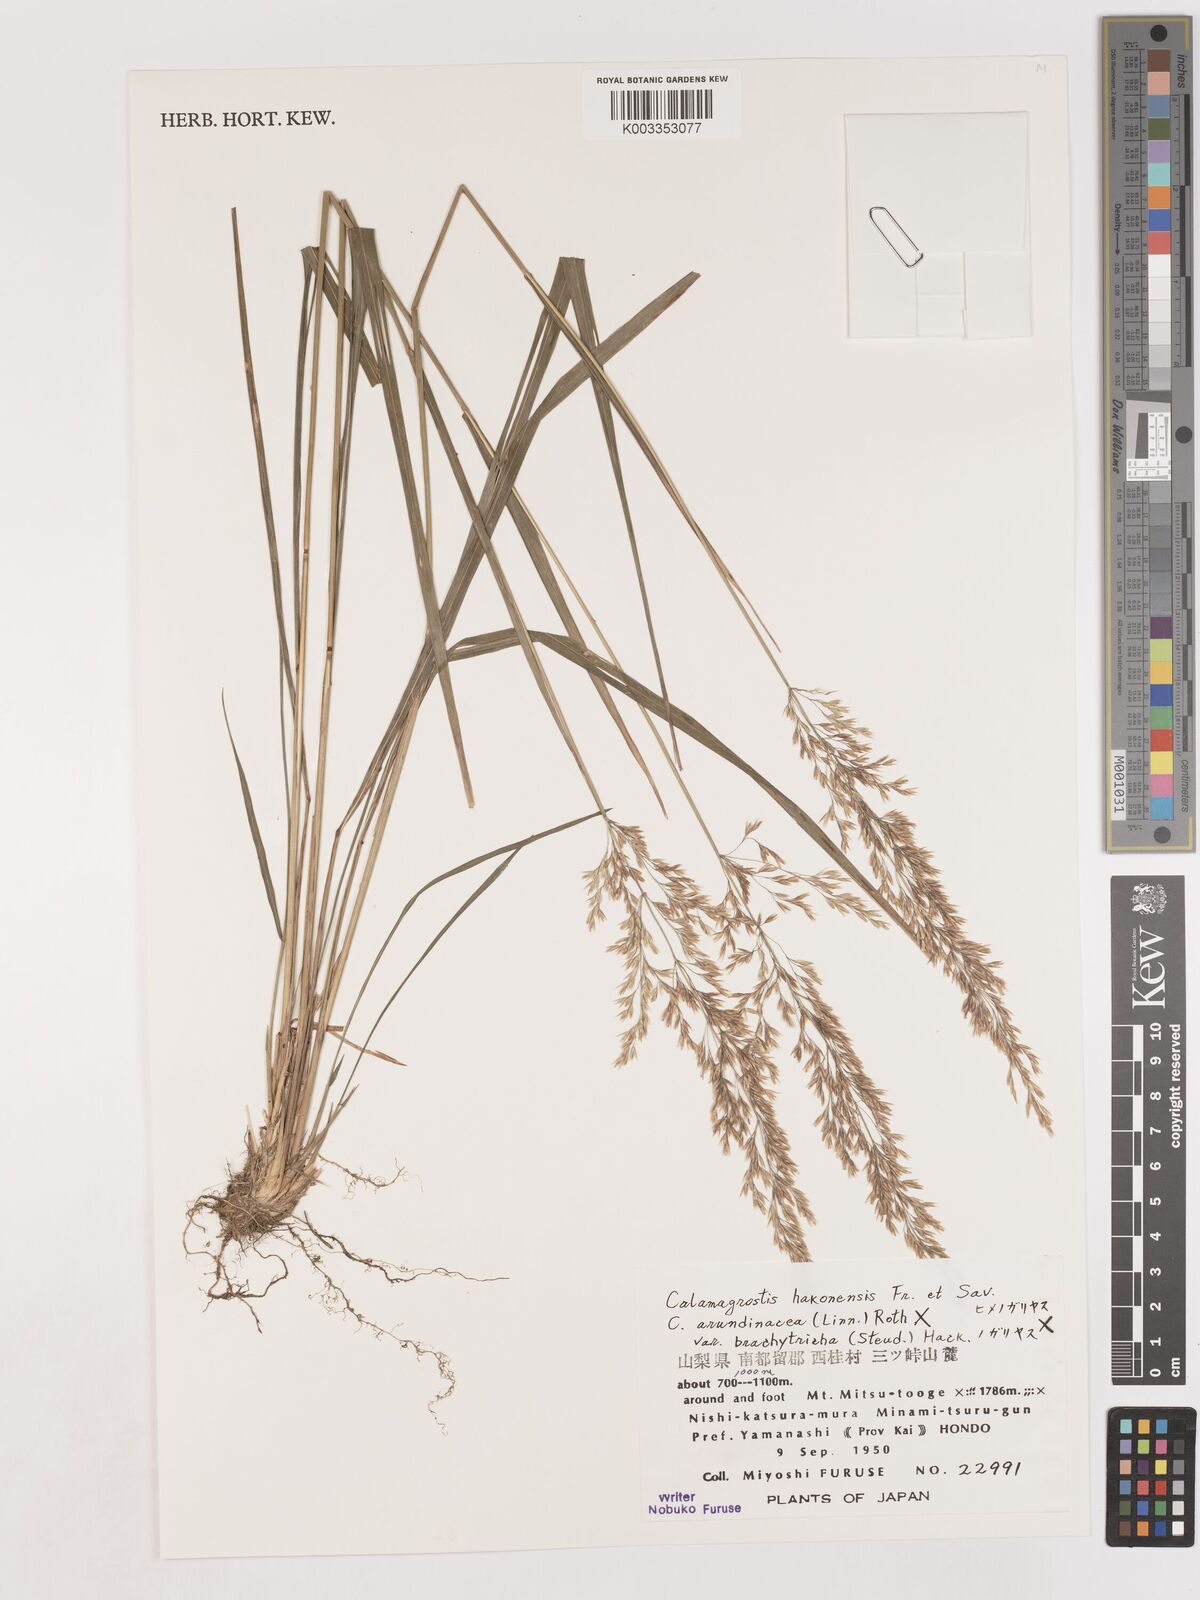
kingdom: Plantae
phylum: Tracheophyta
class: Liliopsida
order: Poales
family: Poaceae
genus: Calamagrostis
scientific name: Calamagrostis hakonensis
